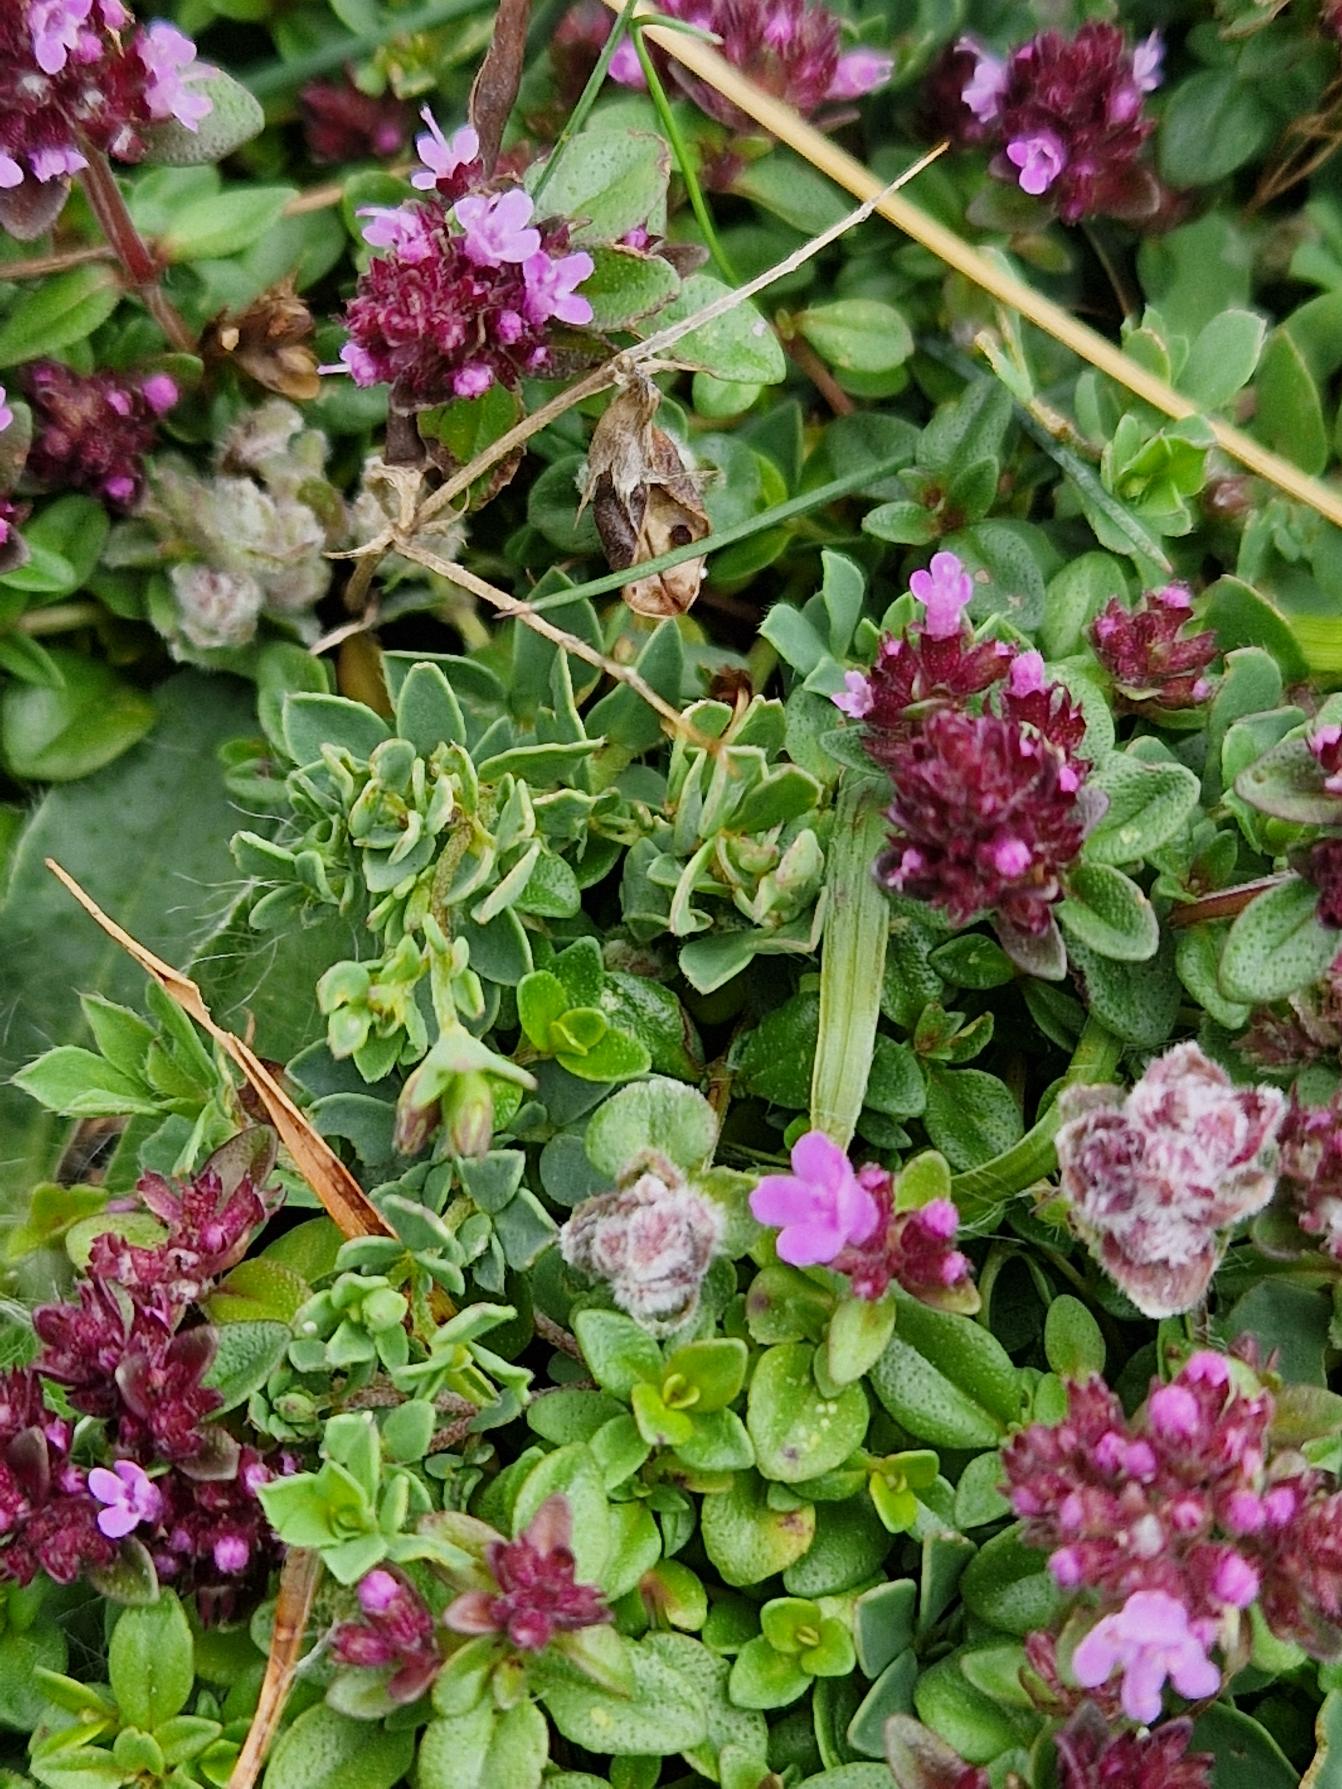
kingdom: Plantae
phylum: Tracheophyta
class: Magnoliopsida
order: Lamiales
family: Lamiaceae
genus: Thymus
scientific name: Thymus pulegioides
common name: Bredbladet timian
